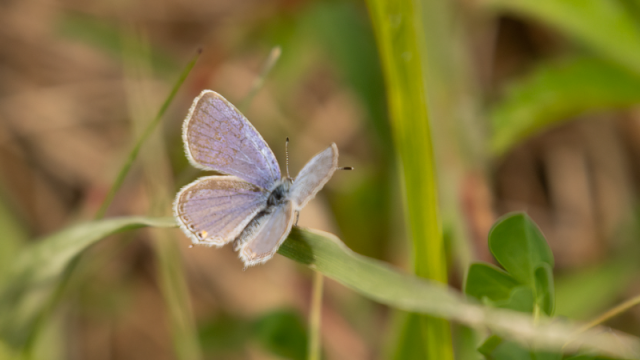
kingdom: Animalia
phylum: Arthropoda
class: Insecta
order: Lepidoptera
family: Lycaenidae
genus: Elkalyce
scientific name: Elkalyce comyntas
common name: Eastern Tailed-Blue
